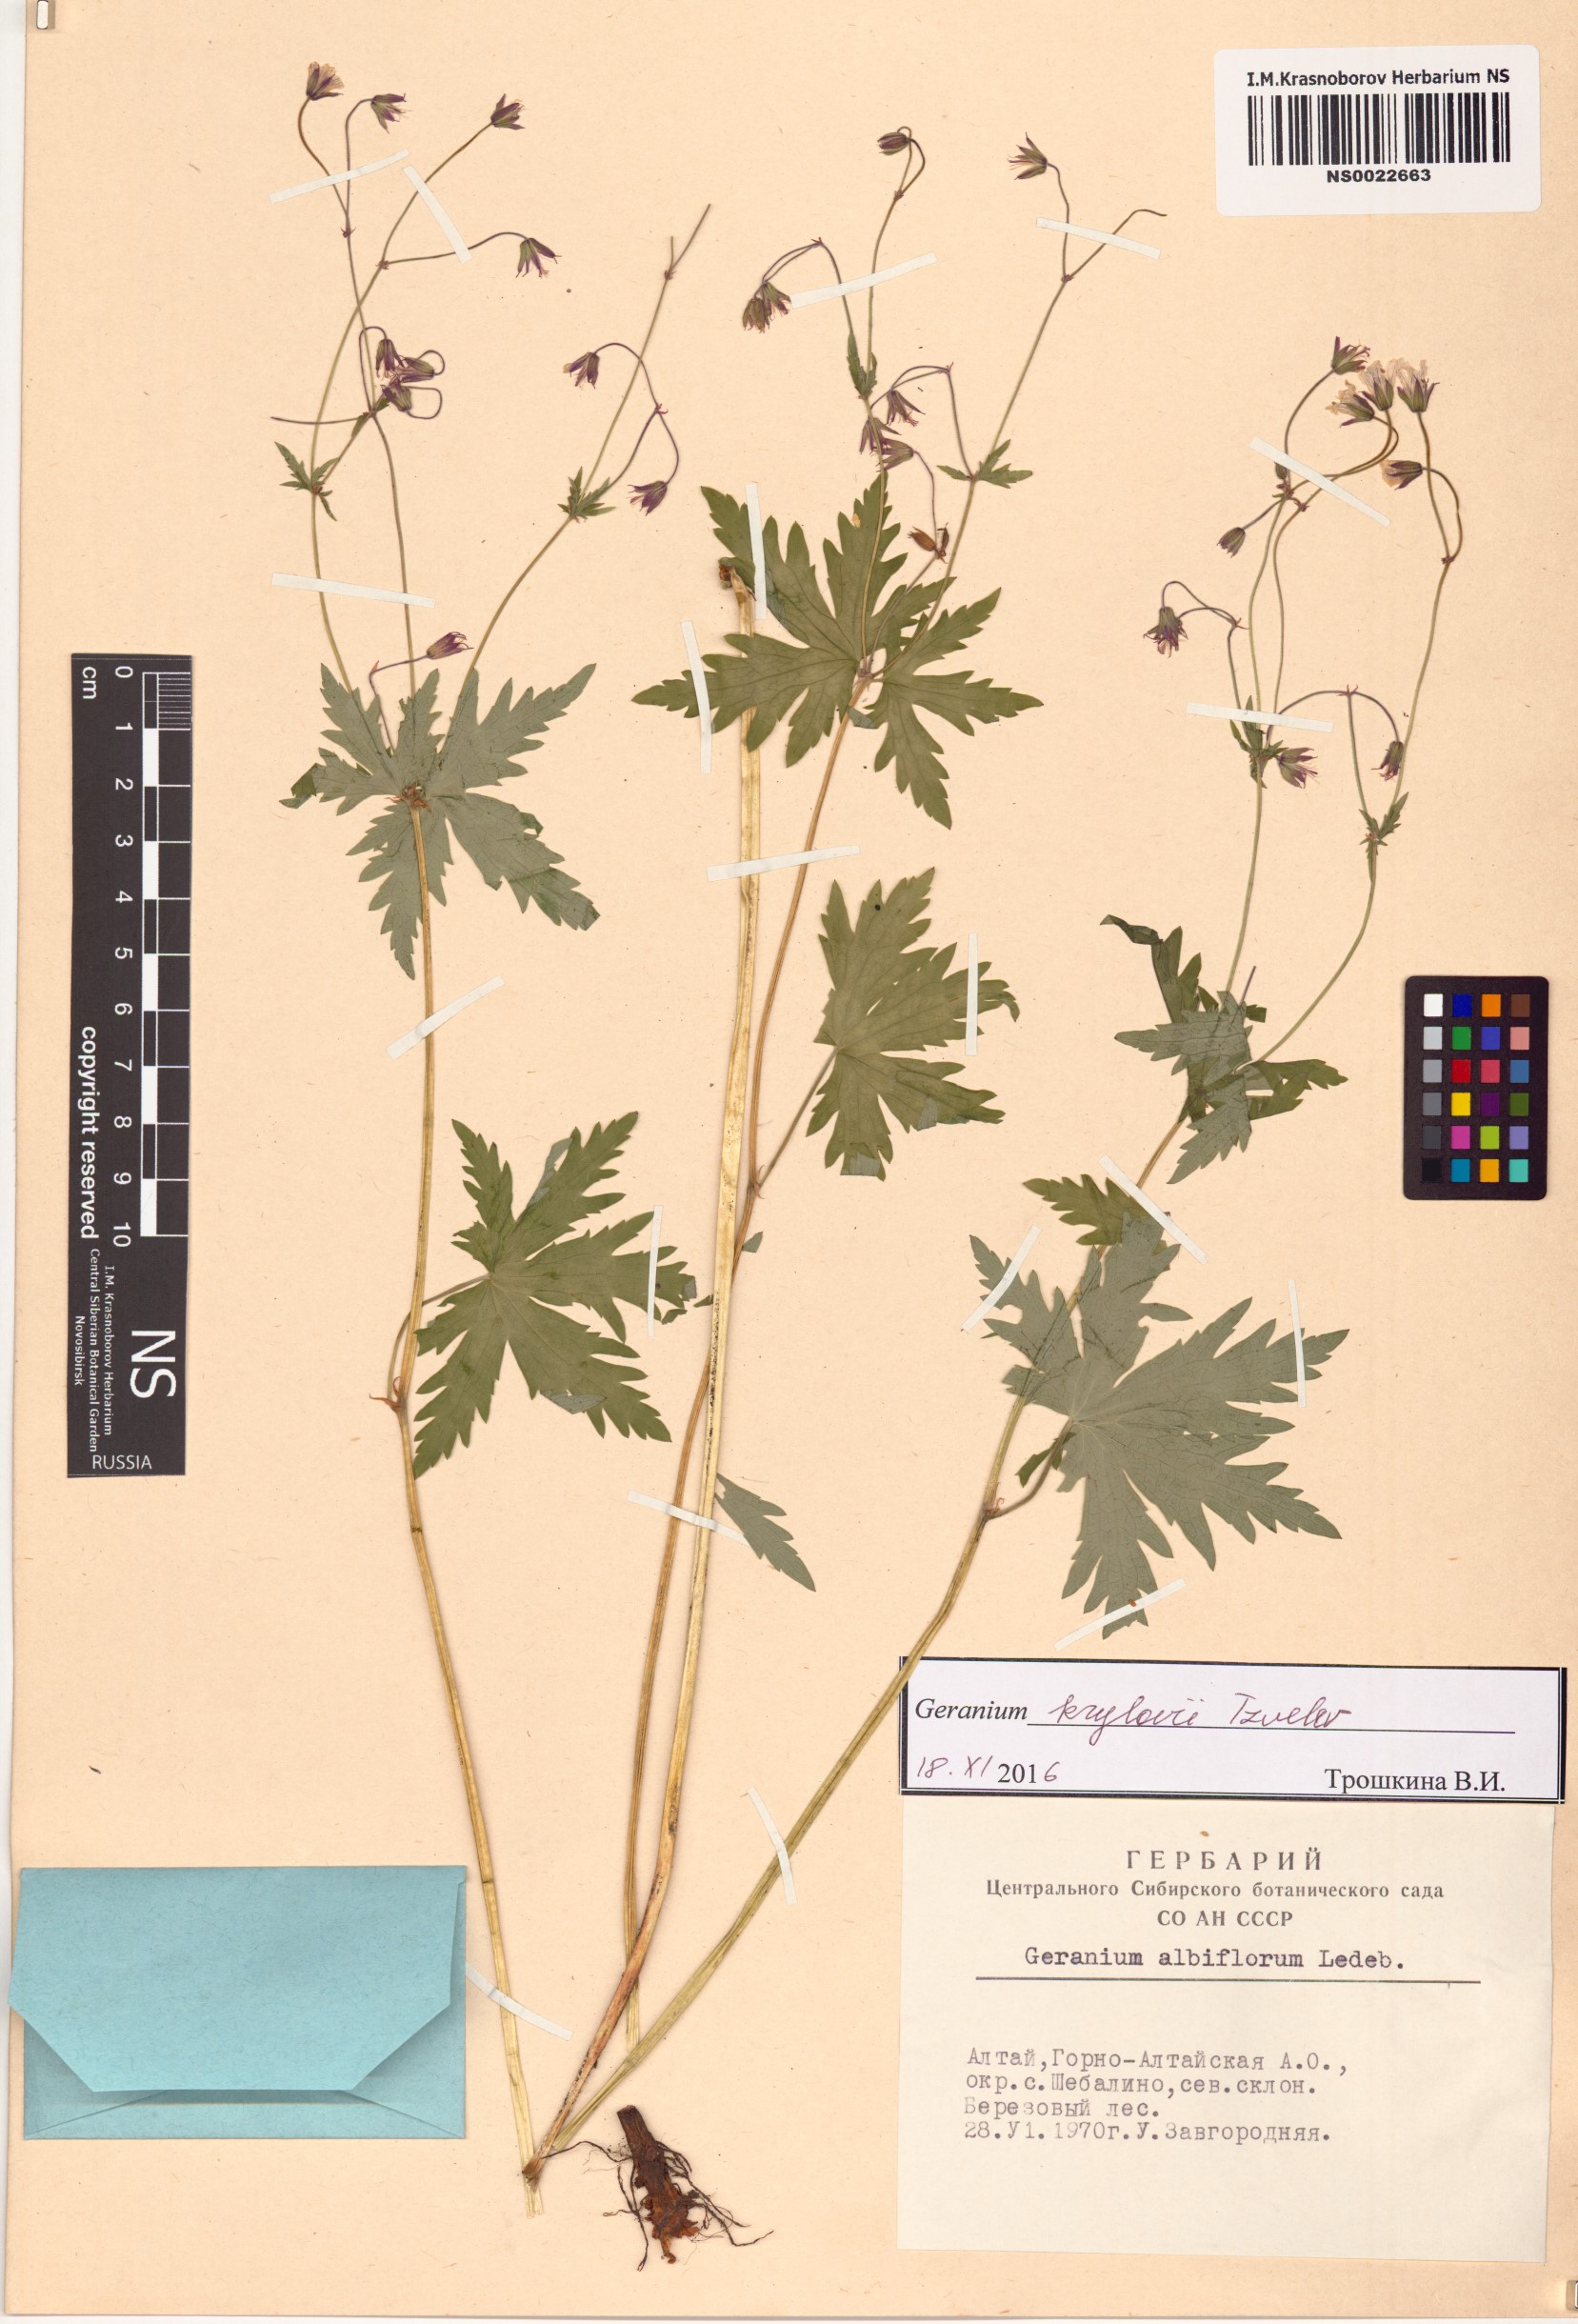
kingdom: Plantae
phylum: Tracheophyta
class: Magnoliopsida
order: Geraniales
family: Geraniaceae
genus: Geranium
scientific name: Geranium sylvaticum
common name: Wood crane's-bill
